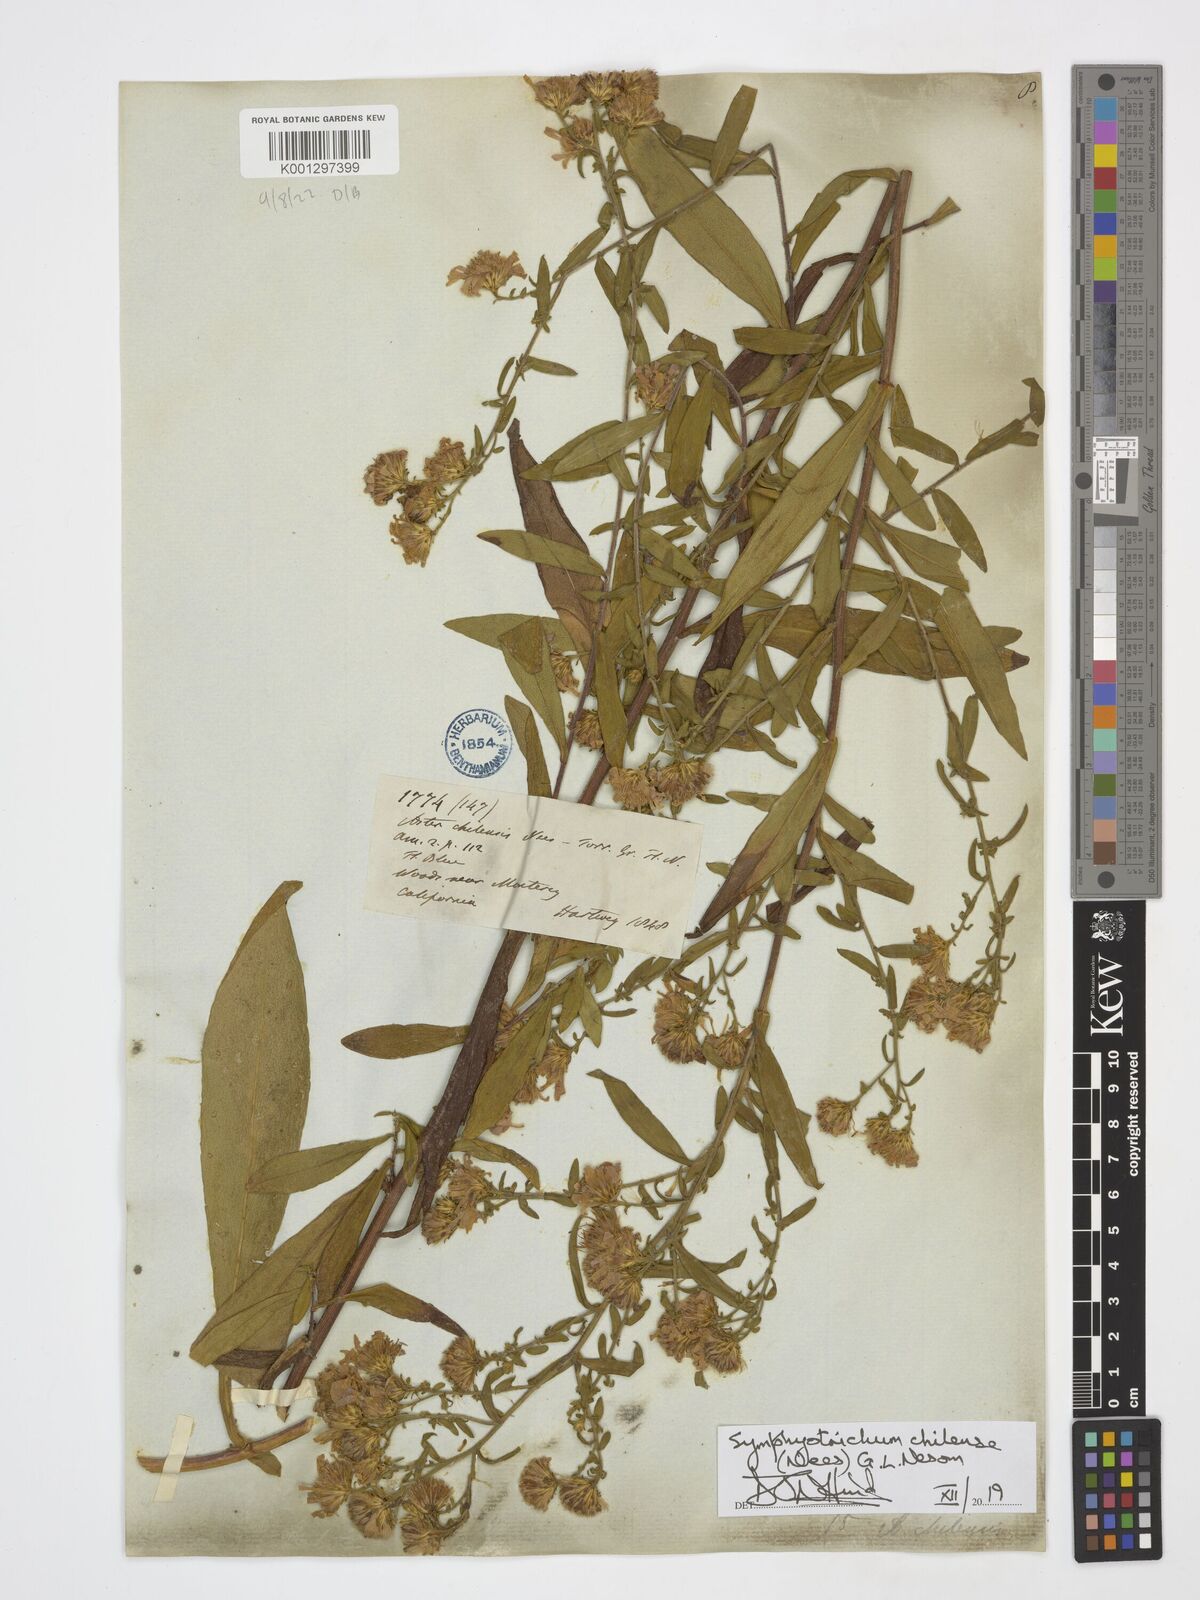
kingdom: Plantae
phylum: Tracheophyta
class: Magnoliopsida
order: Asterales
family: Asteraceae
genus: Symphyotrichum
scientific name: Symphyotrichum chilense
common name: Pacific aster
